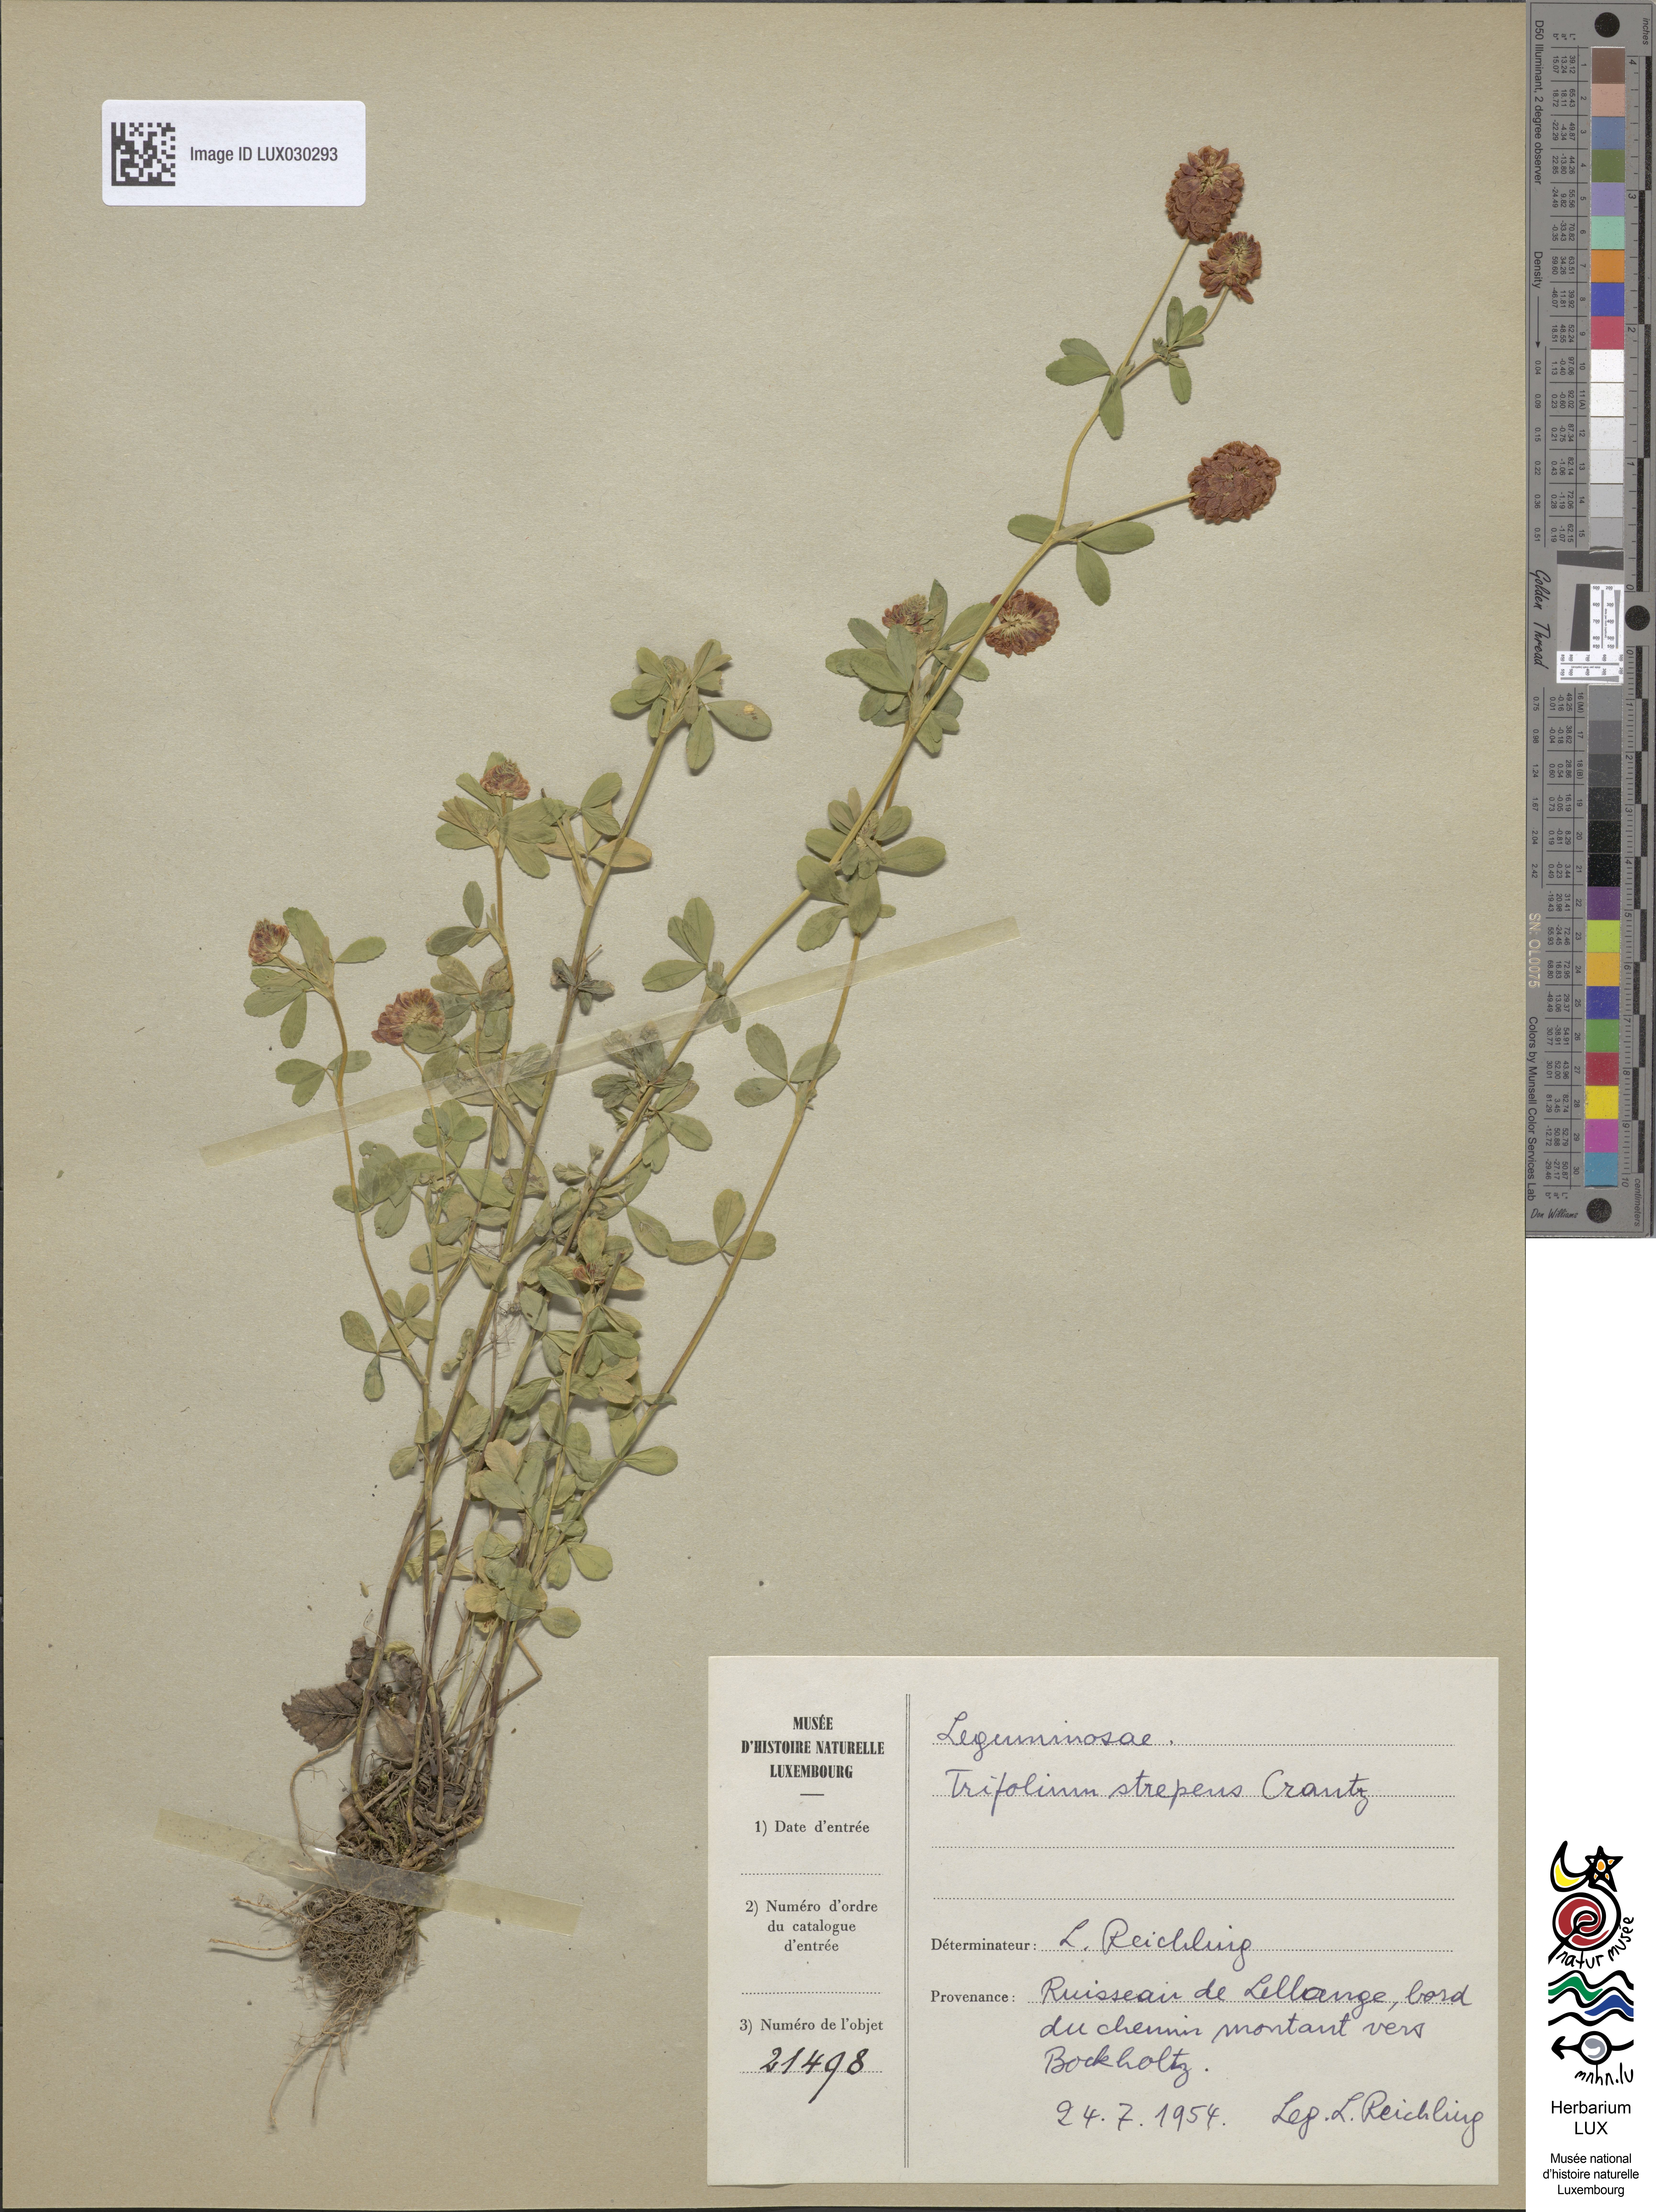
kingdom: Plantae
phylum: Tracheophyta
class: Magnoliopsida
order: Fabales
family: Fabaceae
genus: Trifolium
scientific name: Trifolium aureum
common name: Golden clover
